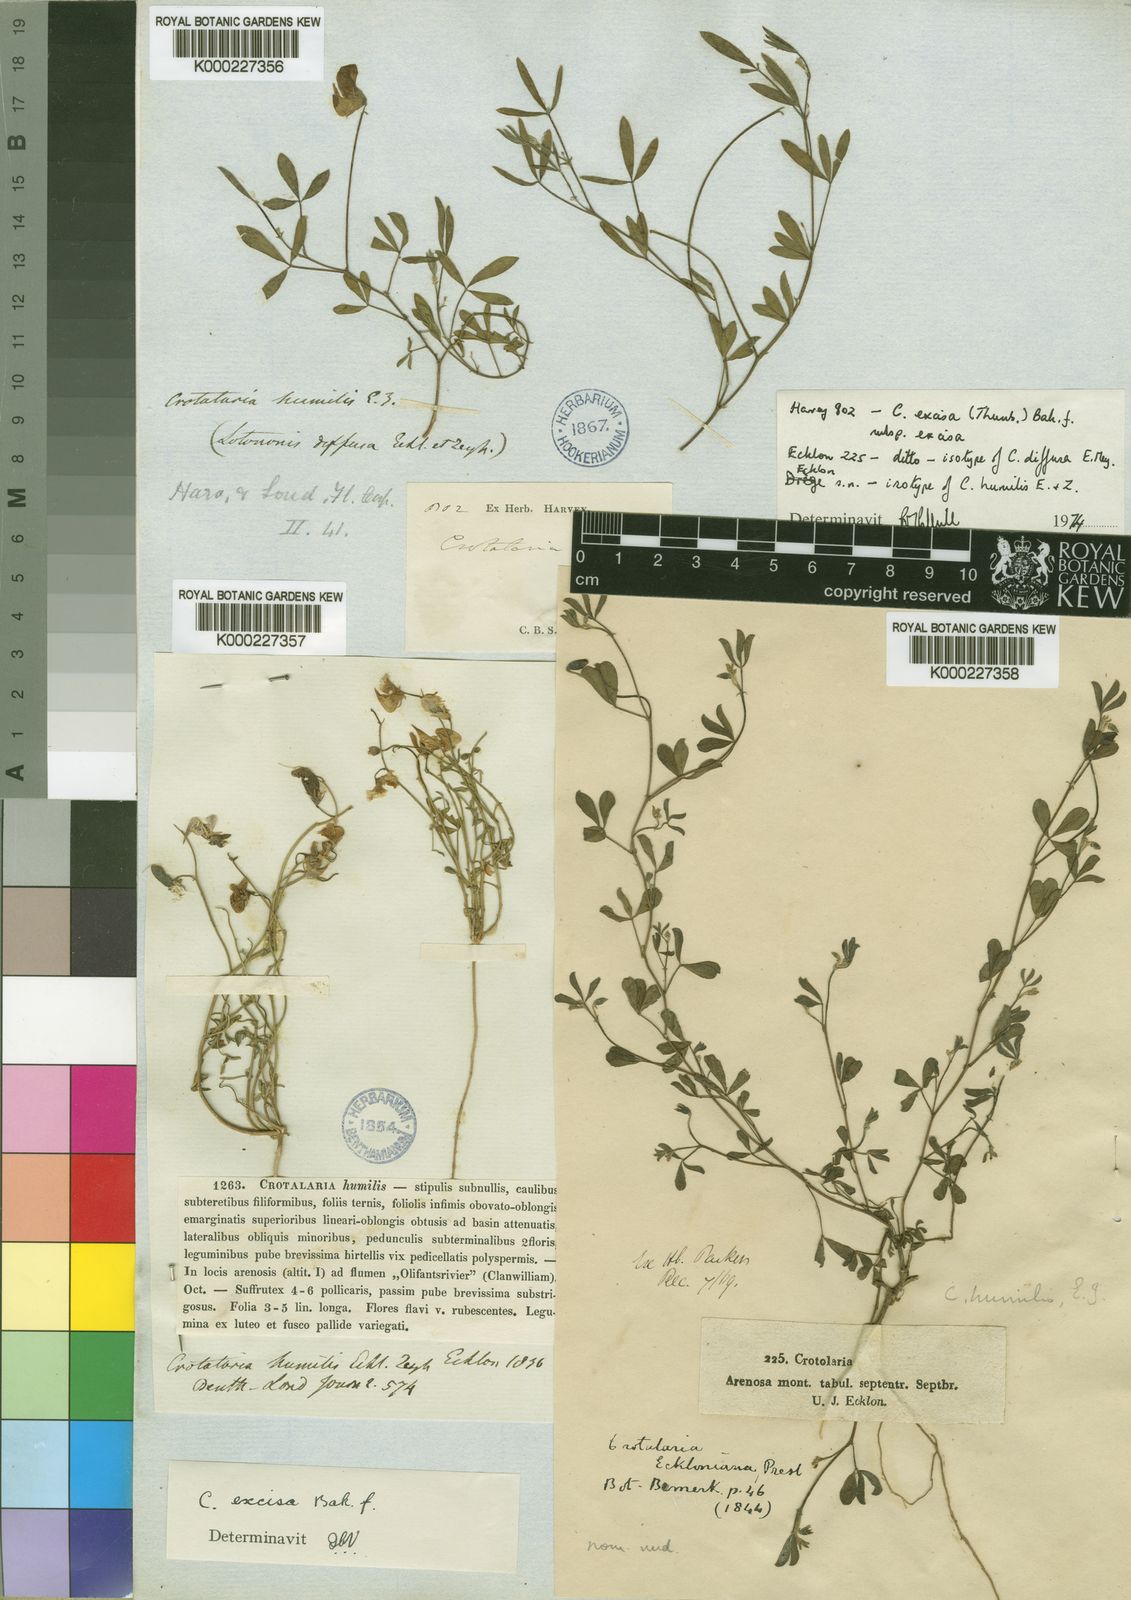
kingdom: Plantae
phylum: Tracheophyta
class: Magnoliopsida
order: Fabales
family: Fabaceae
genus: Crotalaria
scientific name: Crotalaria humilis
